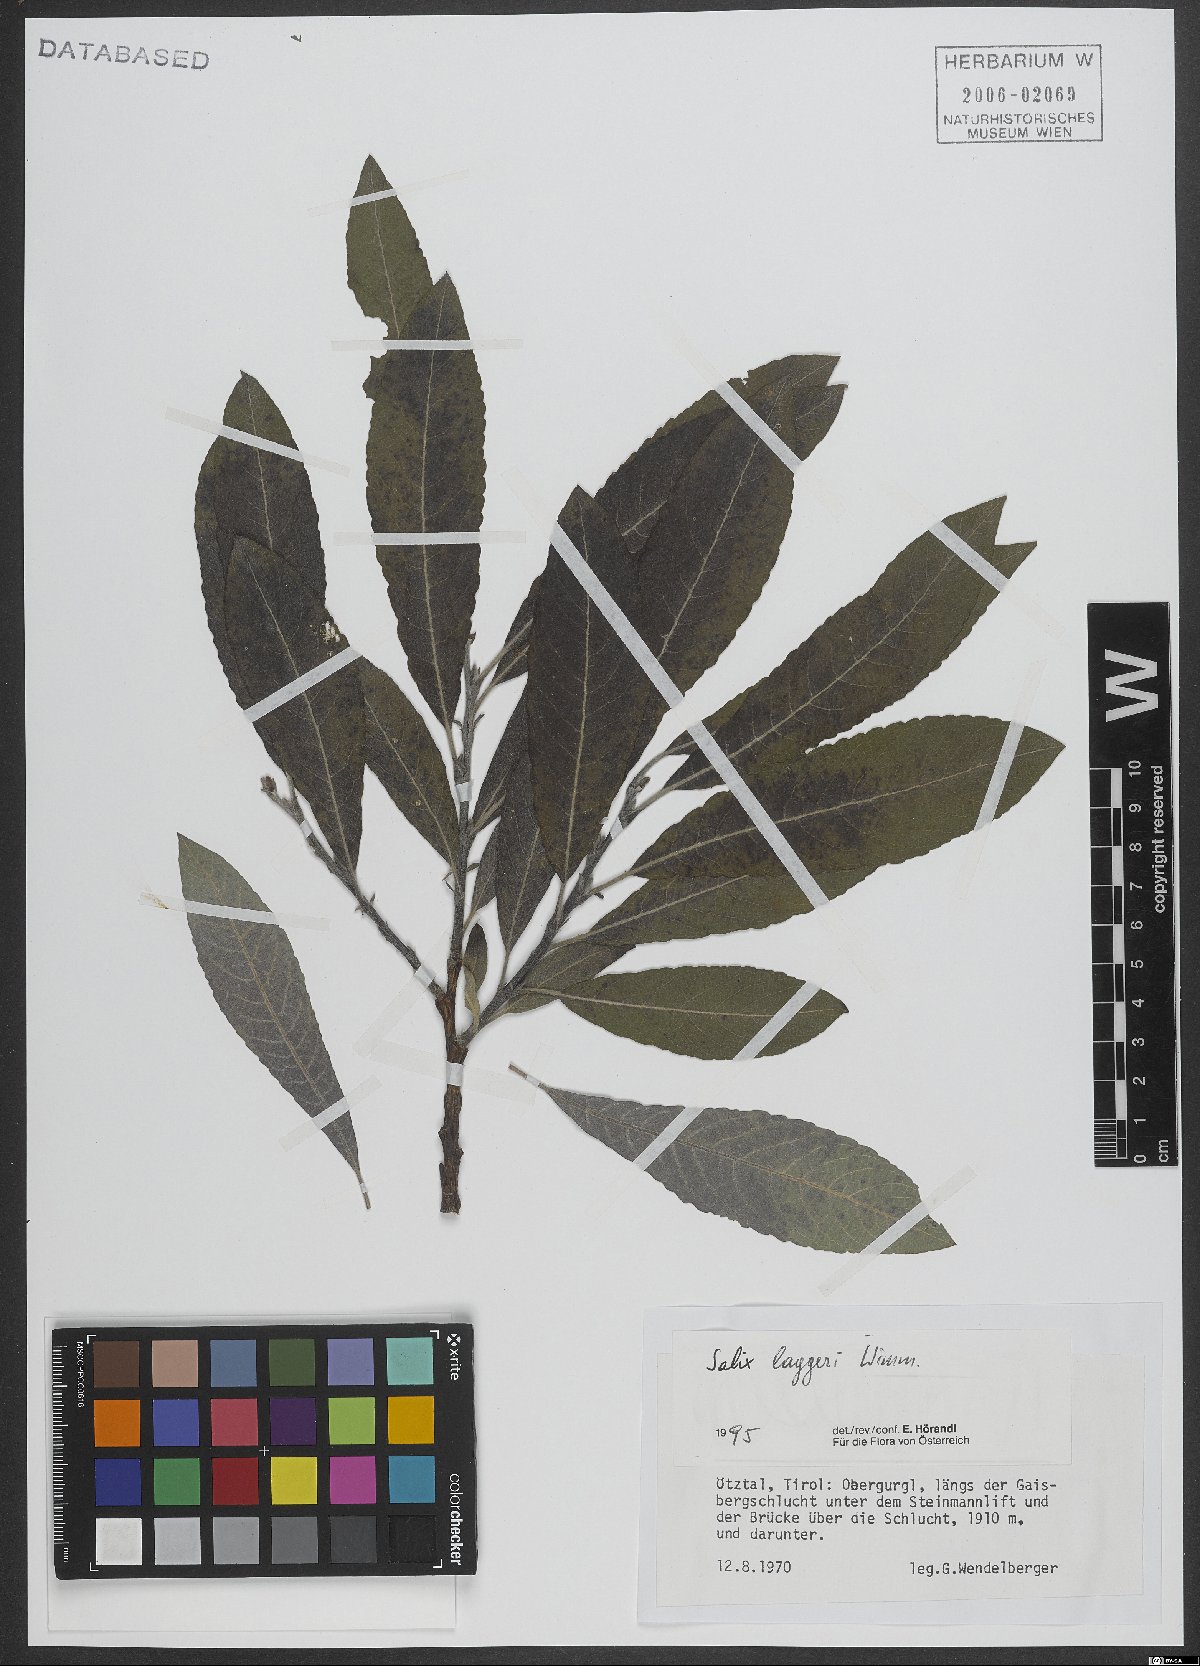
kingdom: Plantae
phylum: Tracheophyta
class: Magnoliopsida
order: Malpighiales
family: Salicaceae
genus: Salix
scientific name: Salix laggeri
